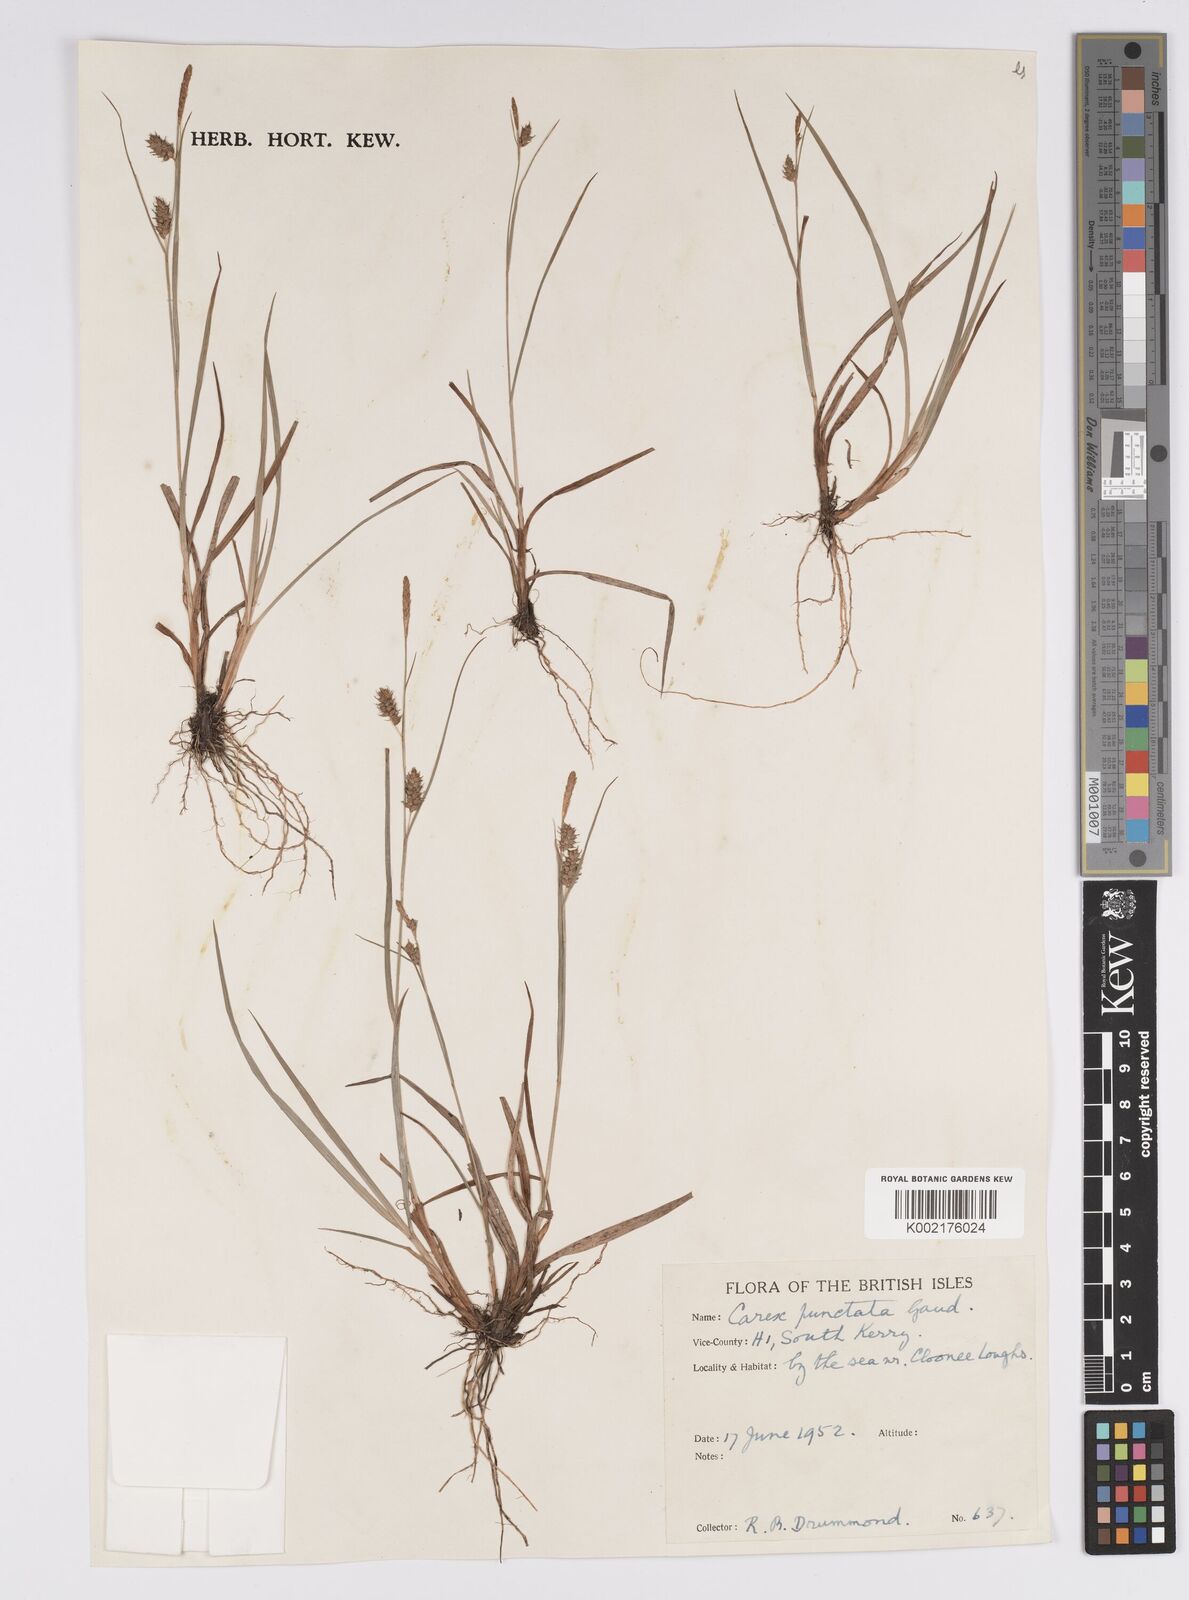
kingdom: Plantae
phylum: Tracheophyta
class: Liliopsida
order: Poales
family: Cyperaceae
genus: Carex
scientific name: Carex punctata
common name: Dotted sedge
